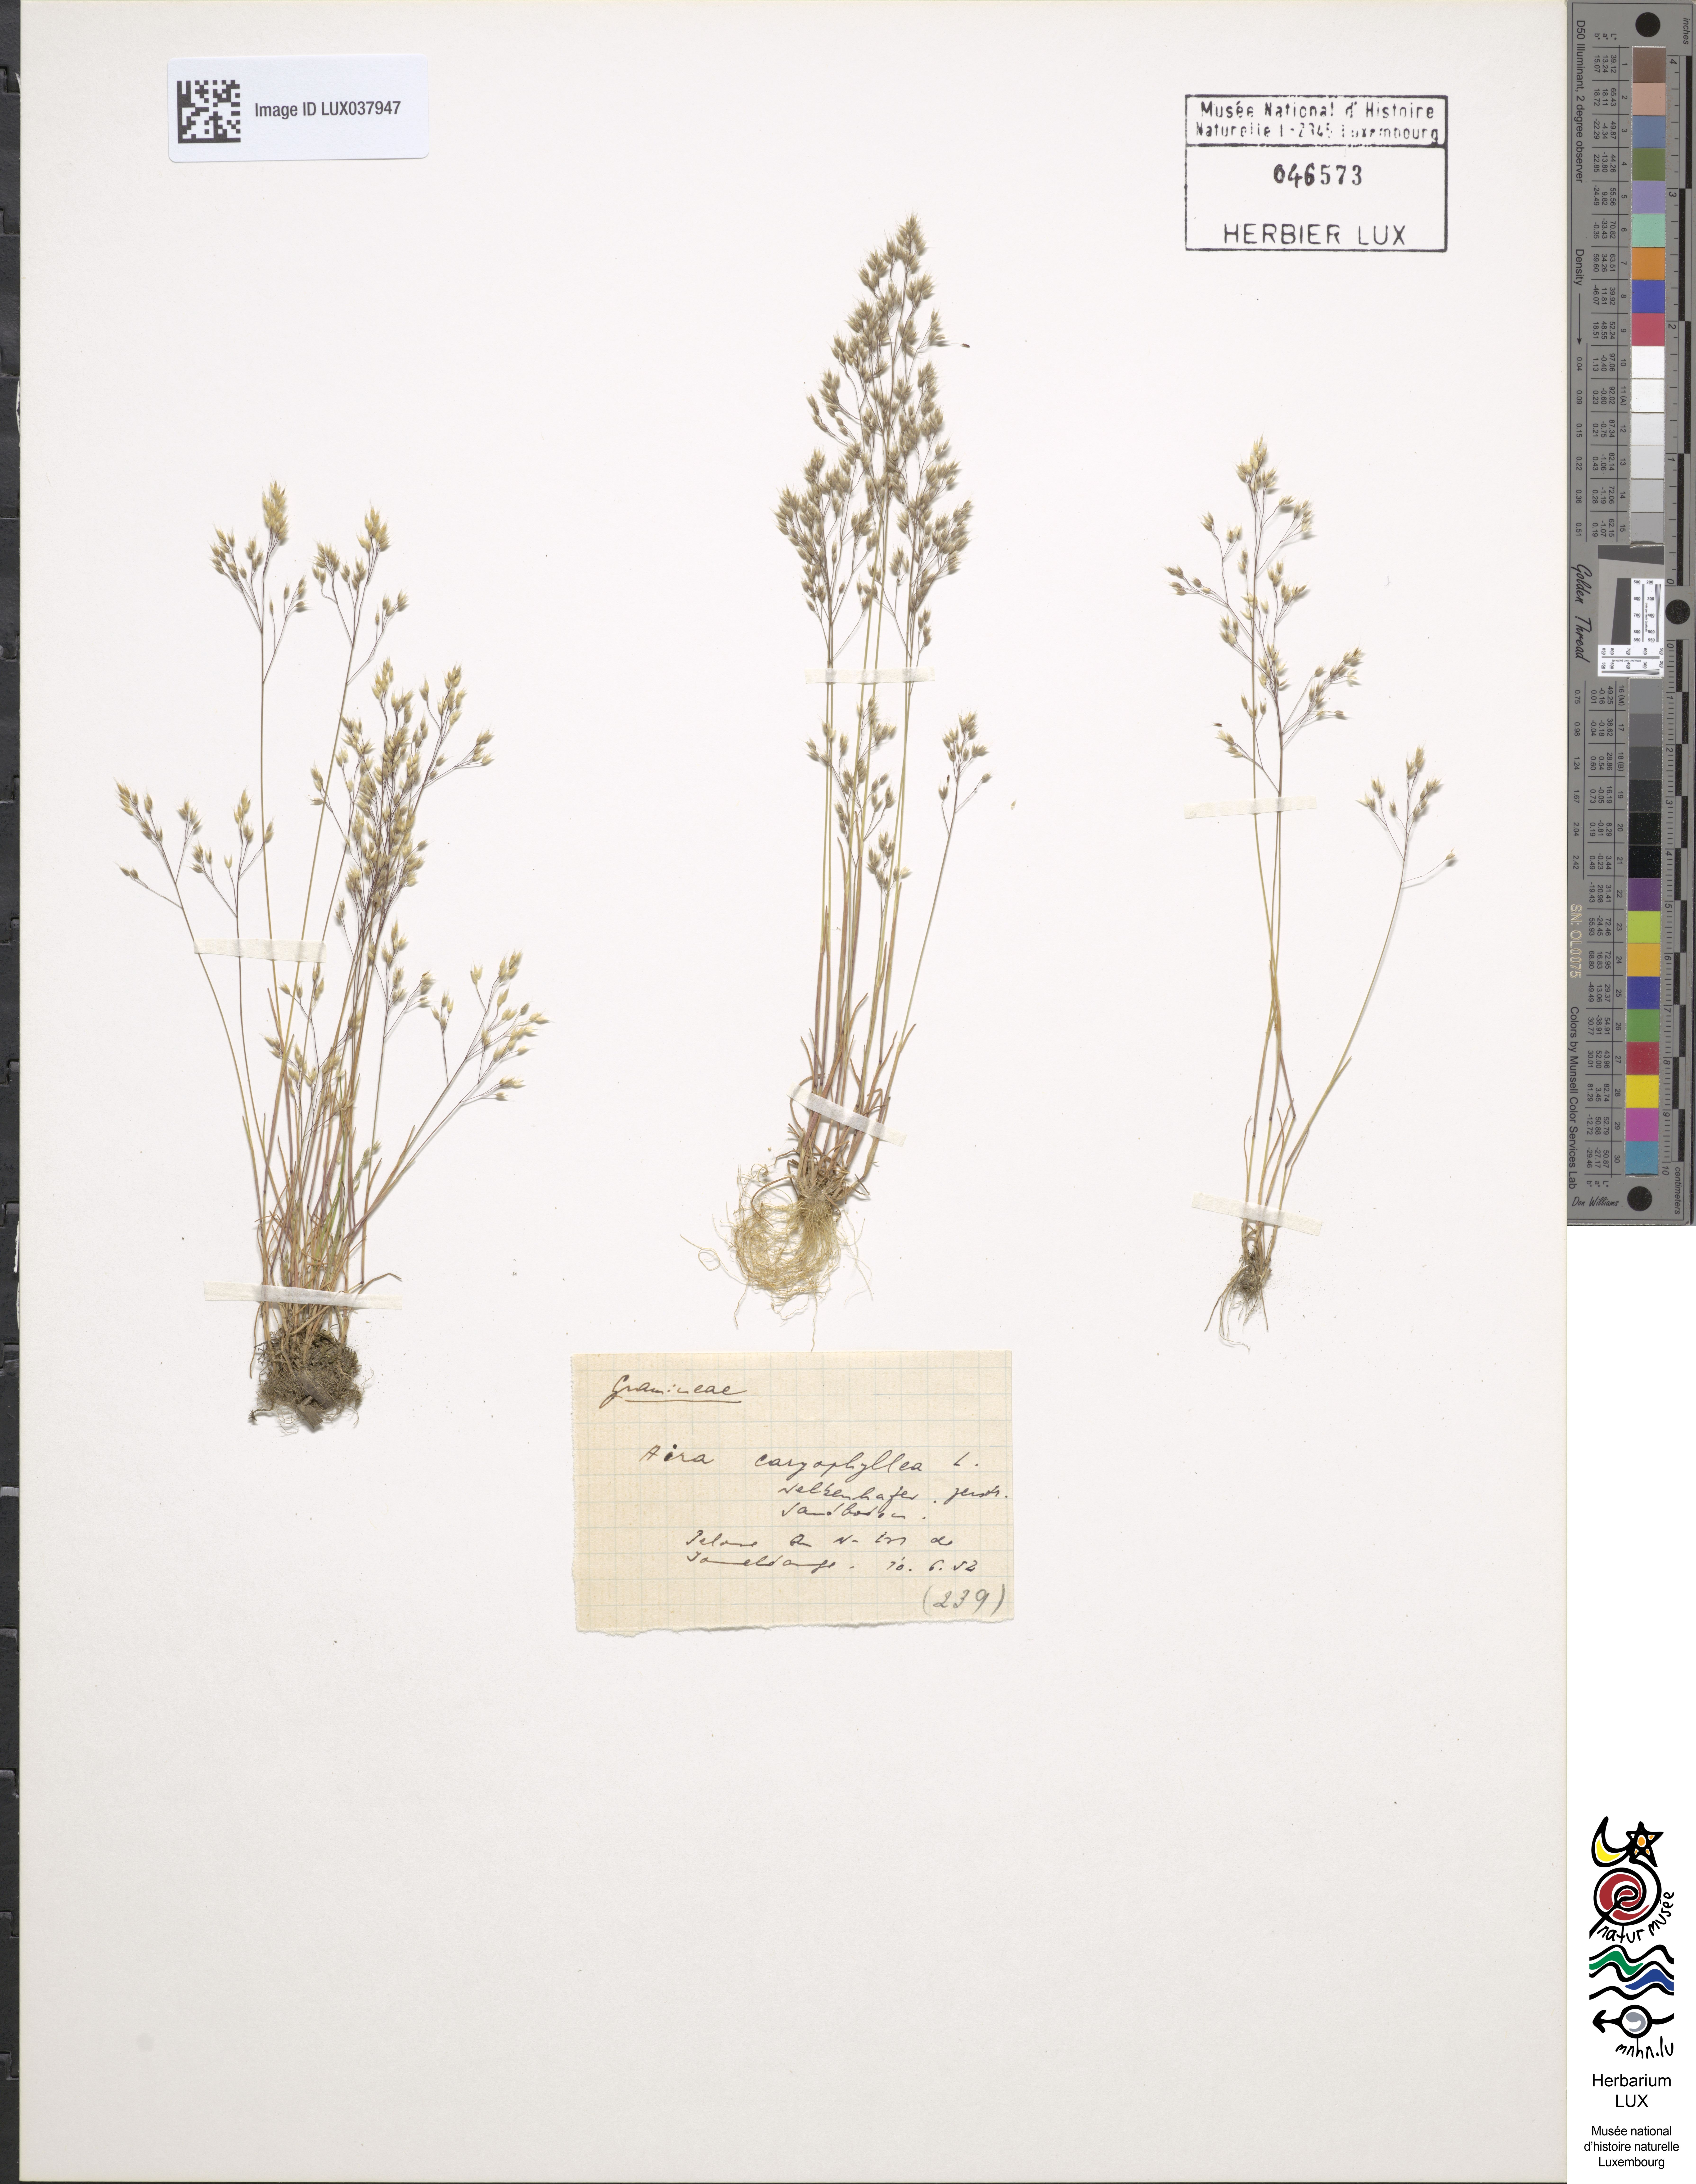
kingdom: Plantae
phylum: Tracheophyta
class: Liliopsida
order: Poales
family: Poaceae
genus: Aira
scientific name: Aira
